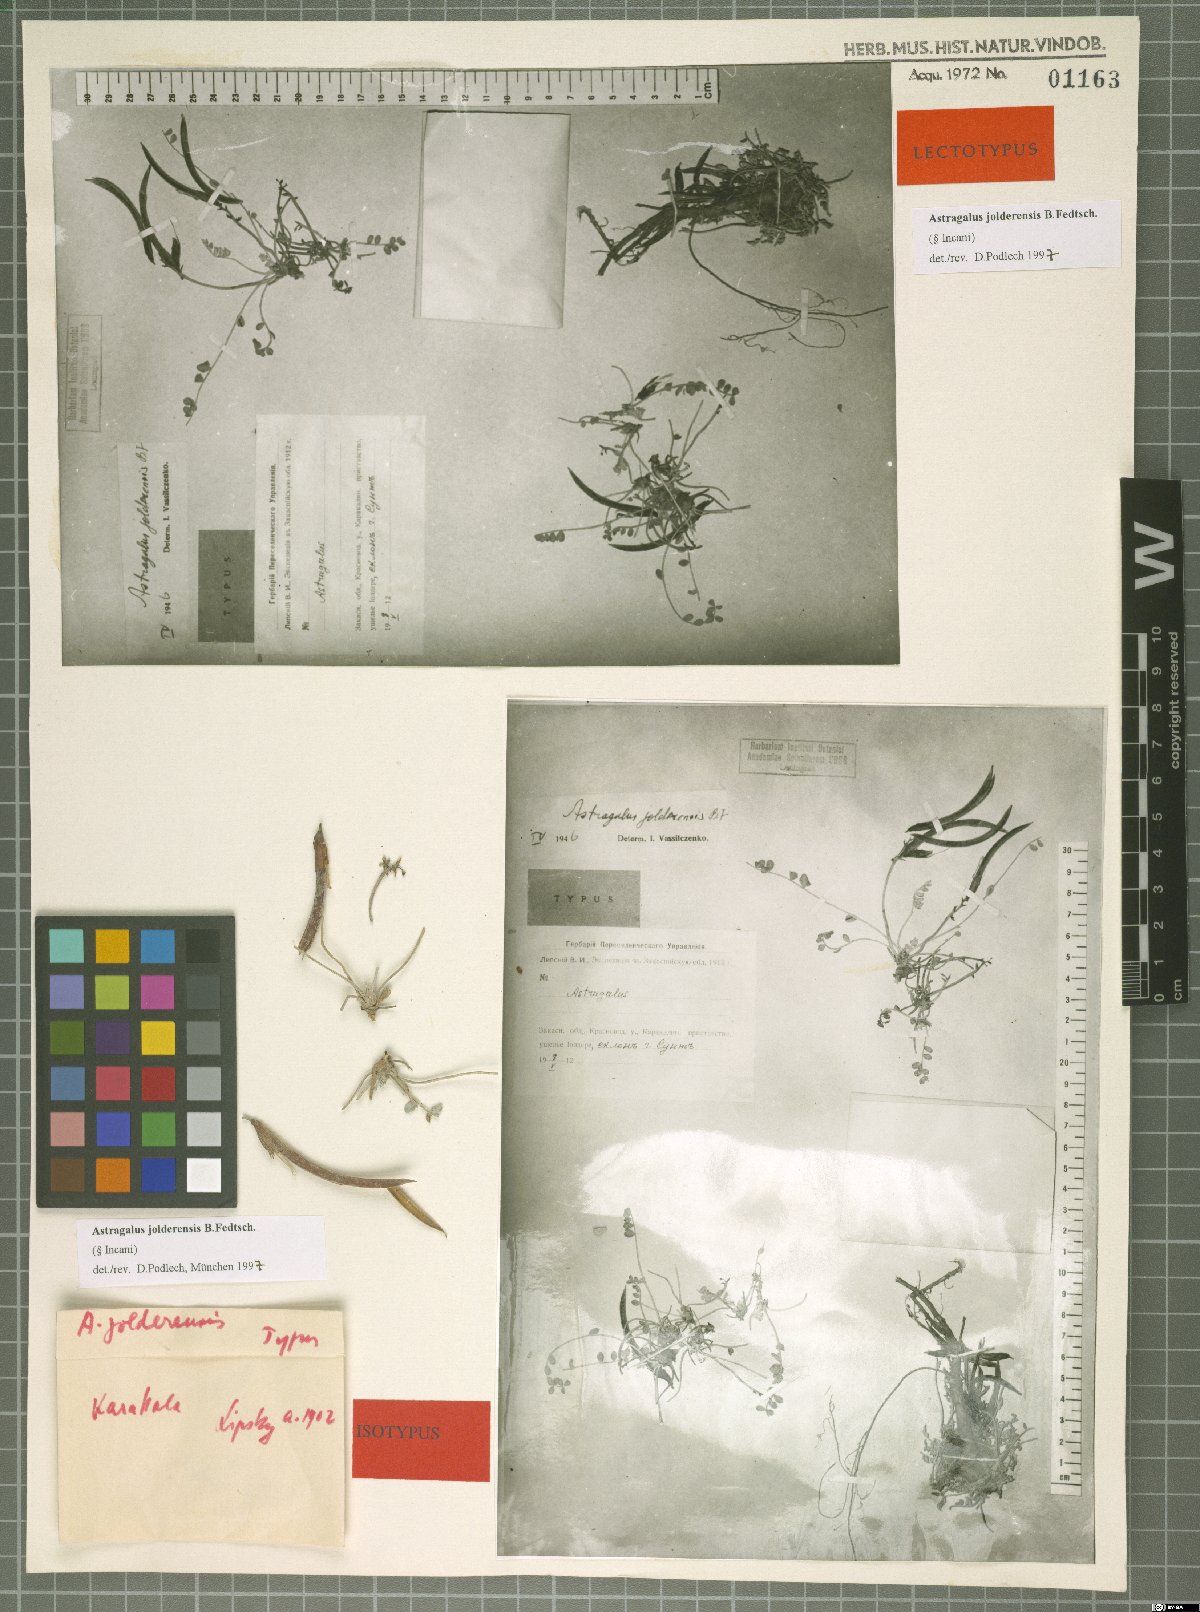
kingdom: Plantae
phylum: Tracheophyta
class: Magnoliopsida
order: Fabales
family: Fabaceae
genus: Astragalus
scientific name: Astragalus jolderensis
